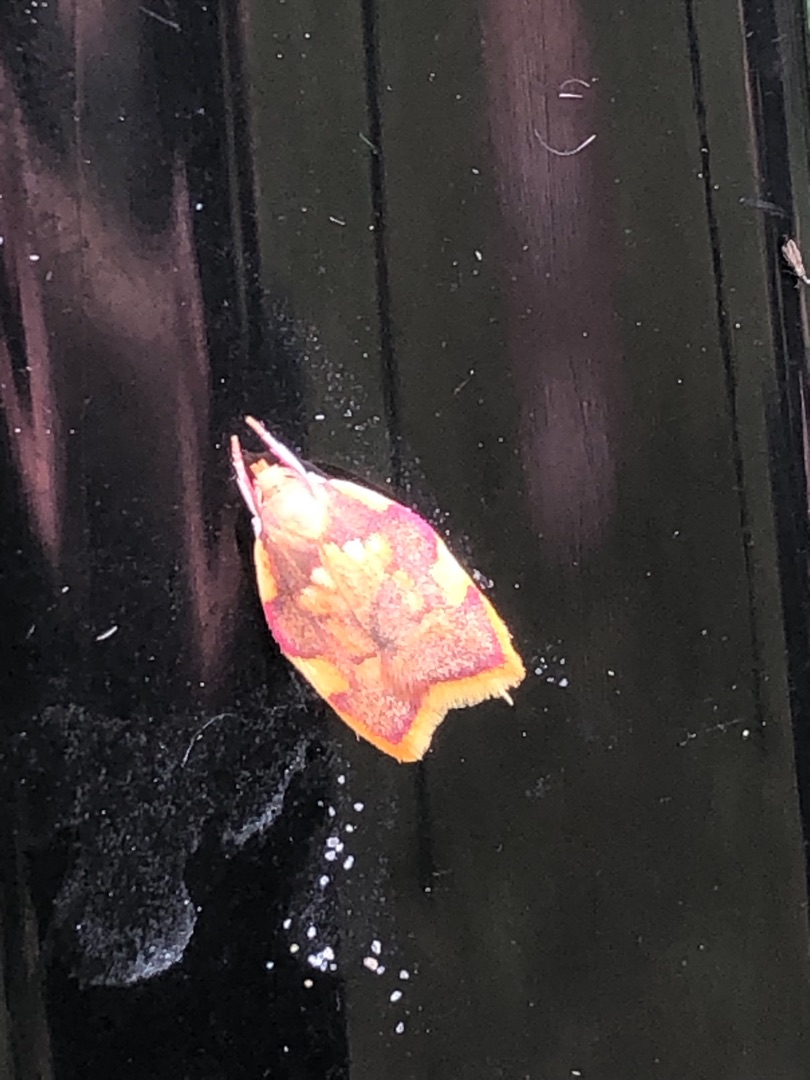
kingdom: Animalia
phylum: Arthropoda
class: Insecta
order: Lepidoptera
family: Peleopodidae
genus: Carcina
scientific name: Carcina quercana
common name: Egeprydvinge
